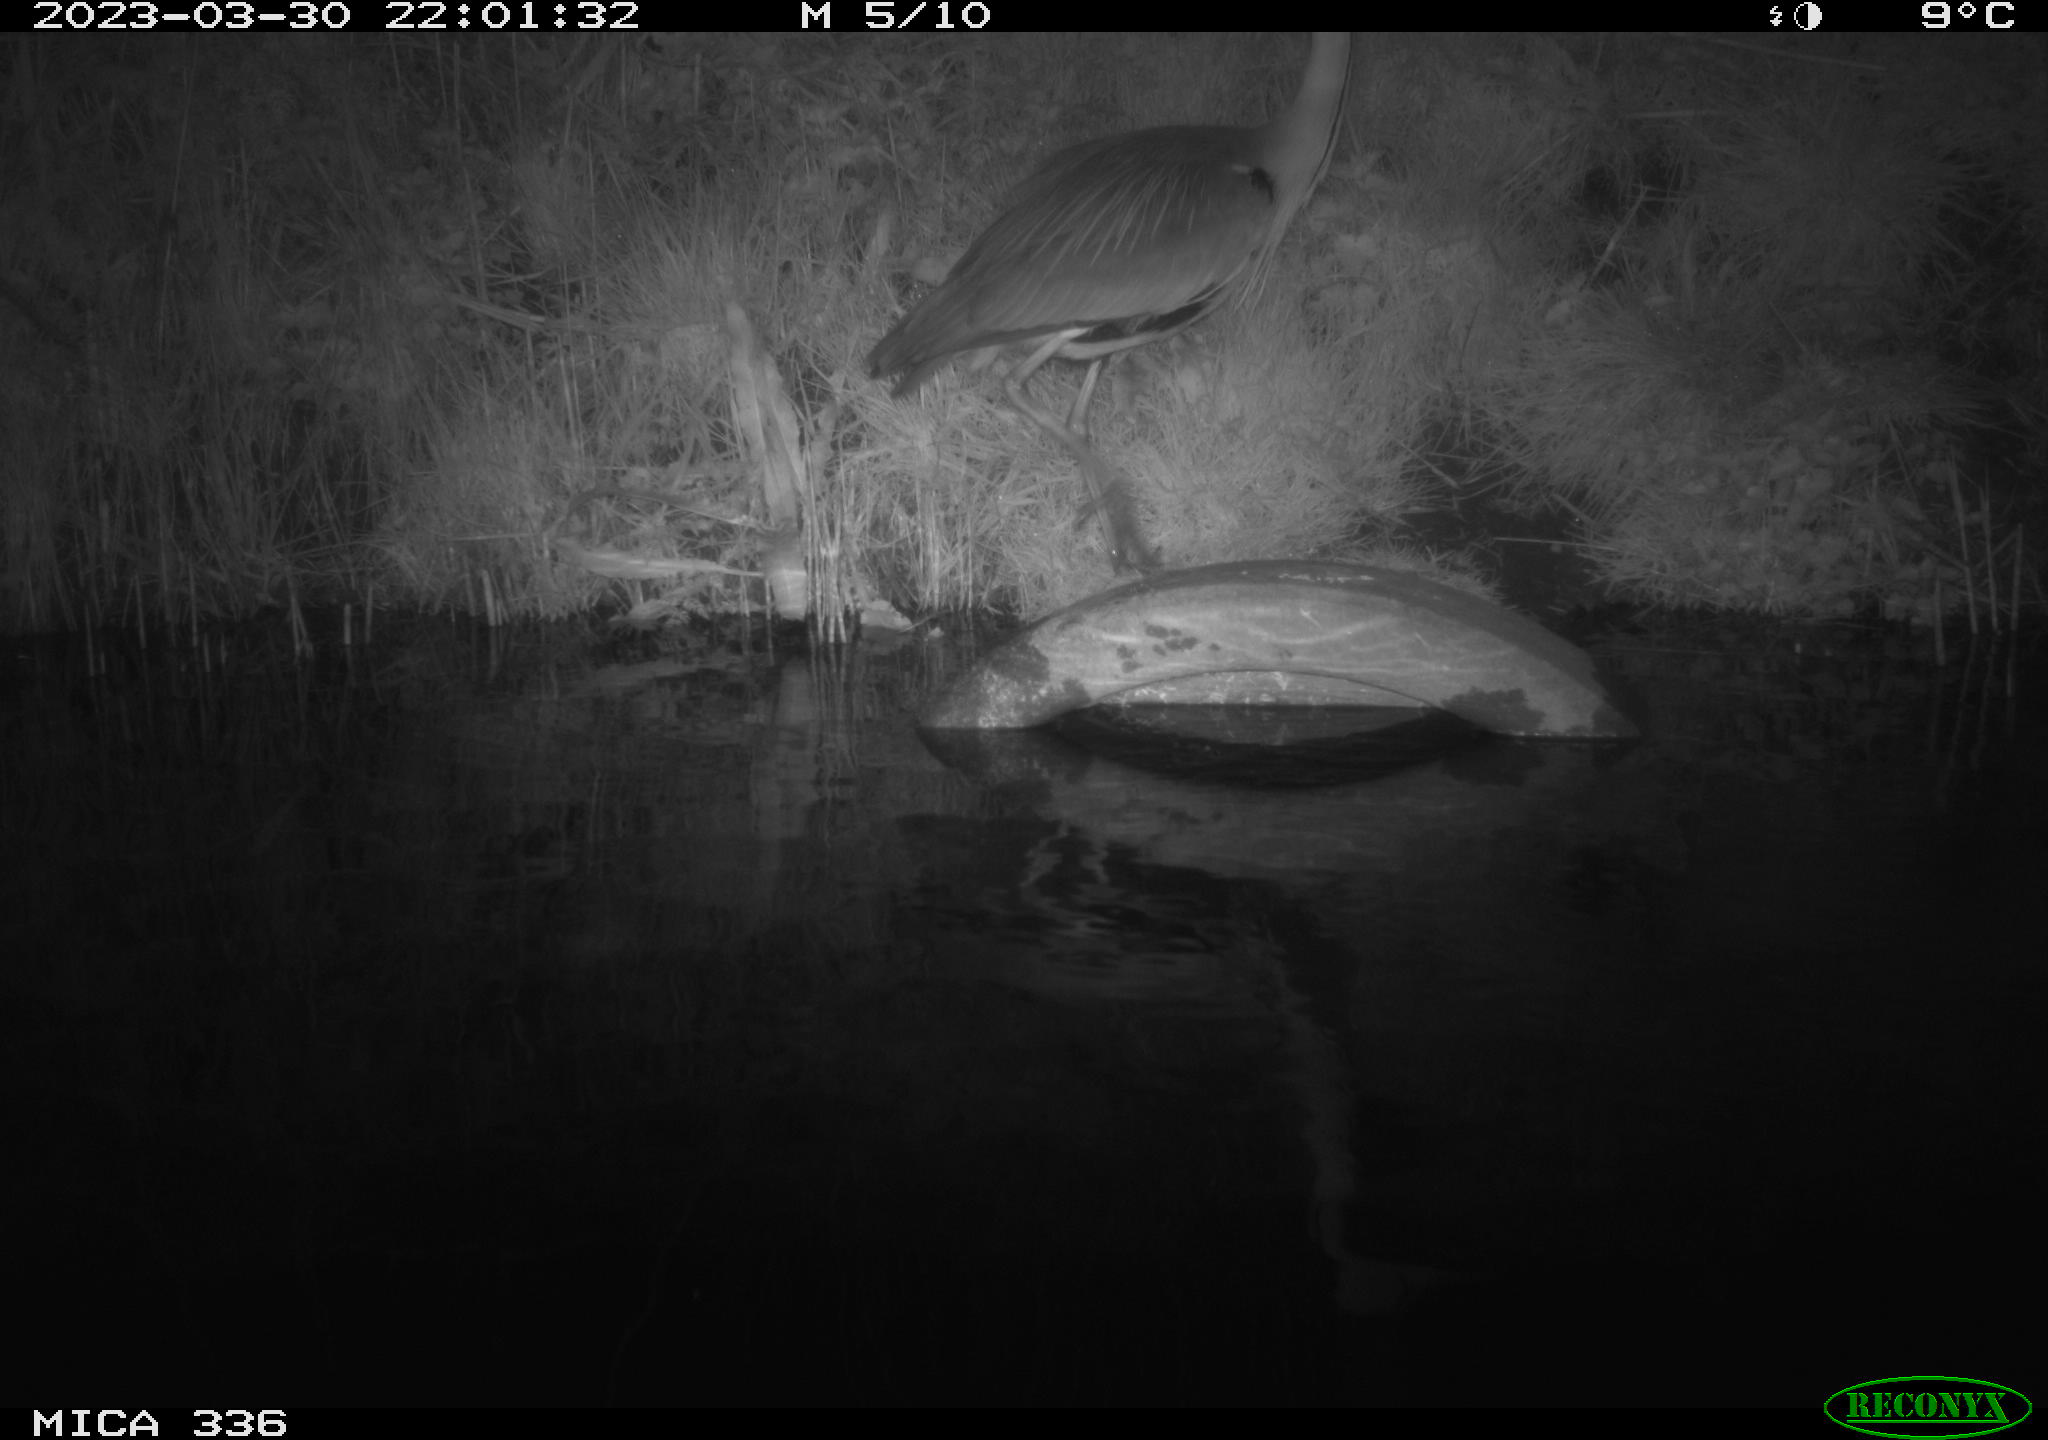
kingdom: Animalia
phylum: Chordata
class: Aves
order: Pelecaniformes
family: Ardeidae
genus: Ardea
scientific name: Ardea
